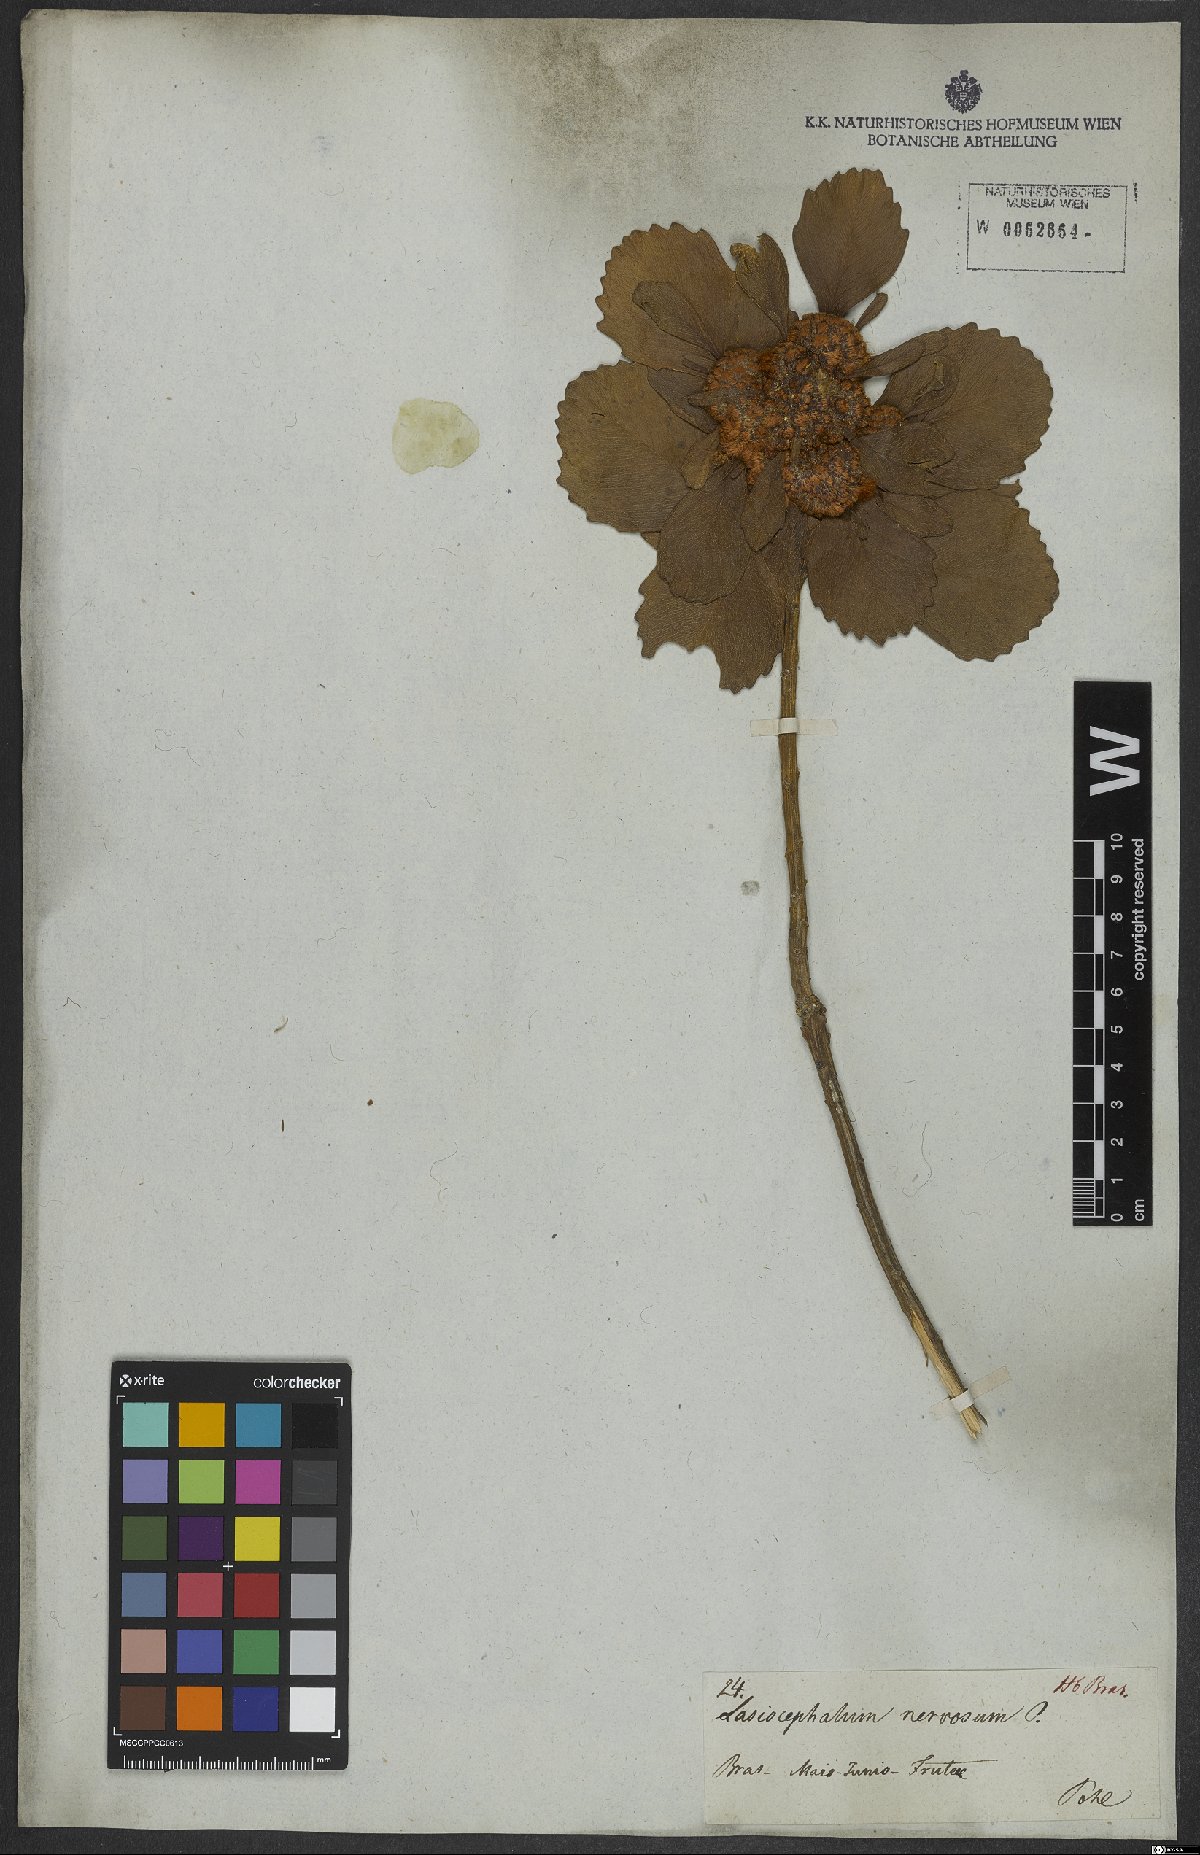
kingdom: Plantae
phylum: Tracheophyta
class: Magnoliopsida
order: Asterales
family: Asteraceae
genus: Baccharis
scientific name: Baccharis platypoda
